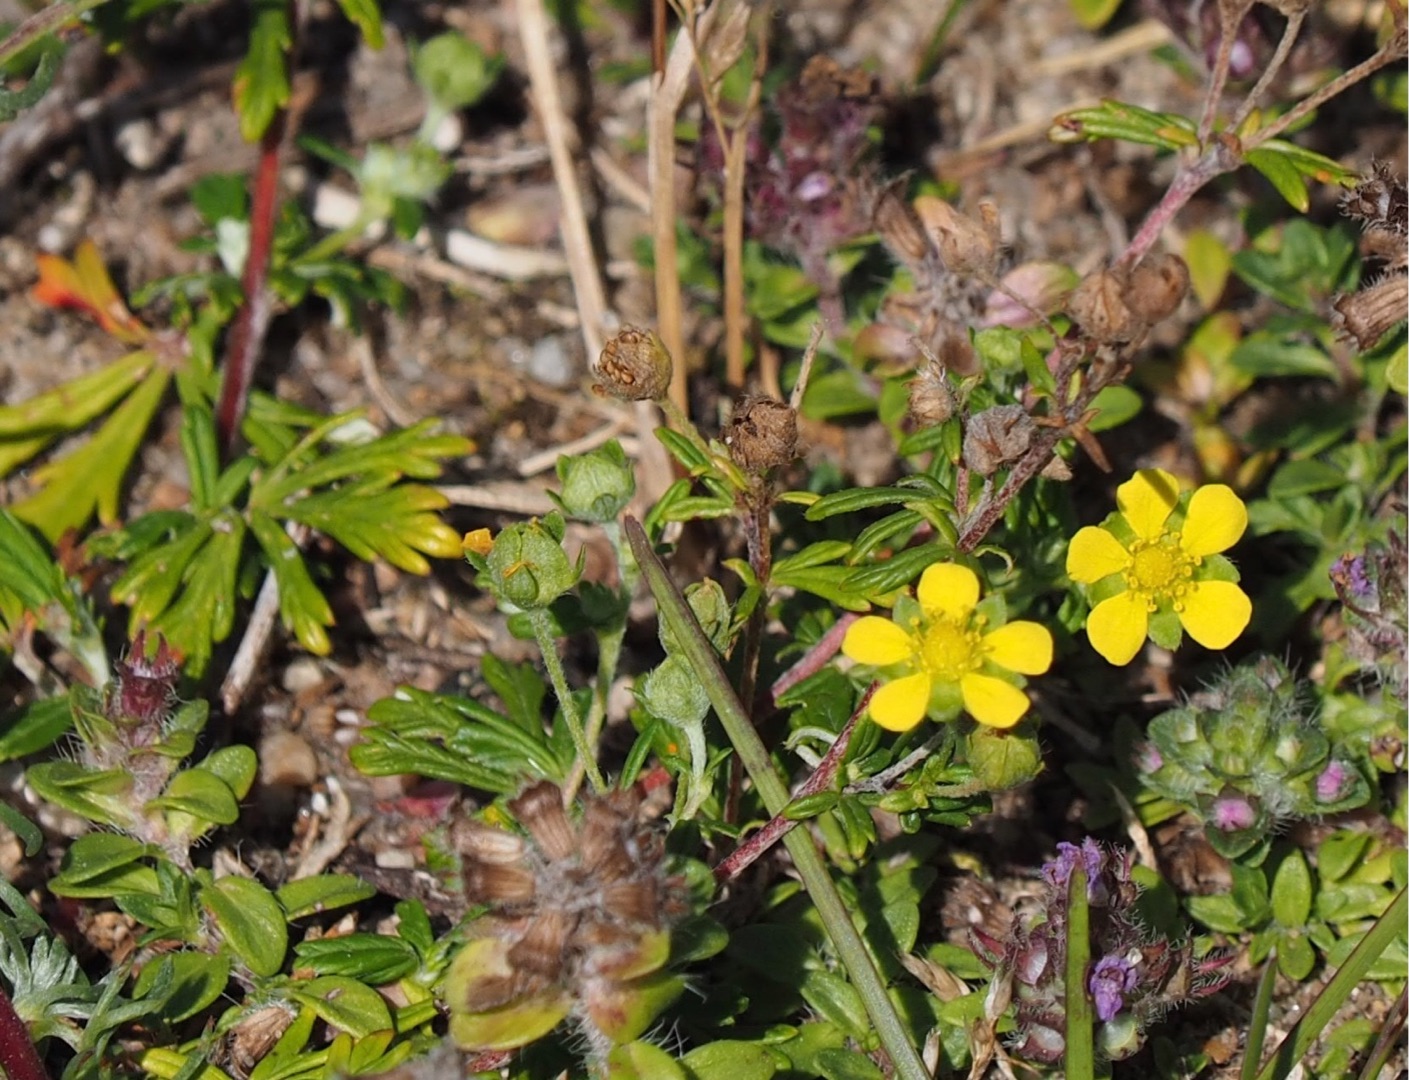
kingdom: Plantae
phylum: Tracheophyta
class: Magnoliopsida
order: Rosales
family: Rosaceae
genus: Potentilla
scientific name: Potentilla argentea
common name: Sølv-potentil
